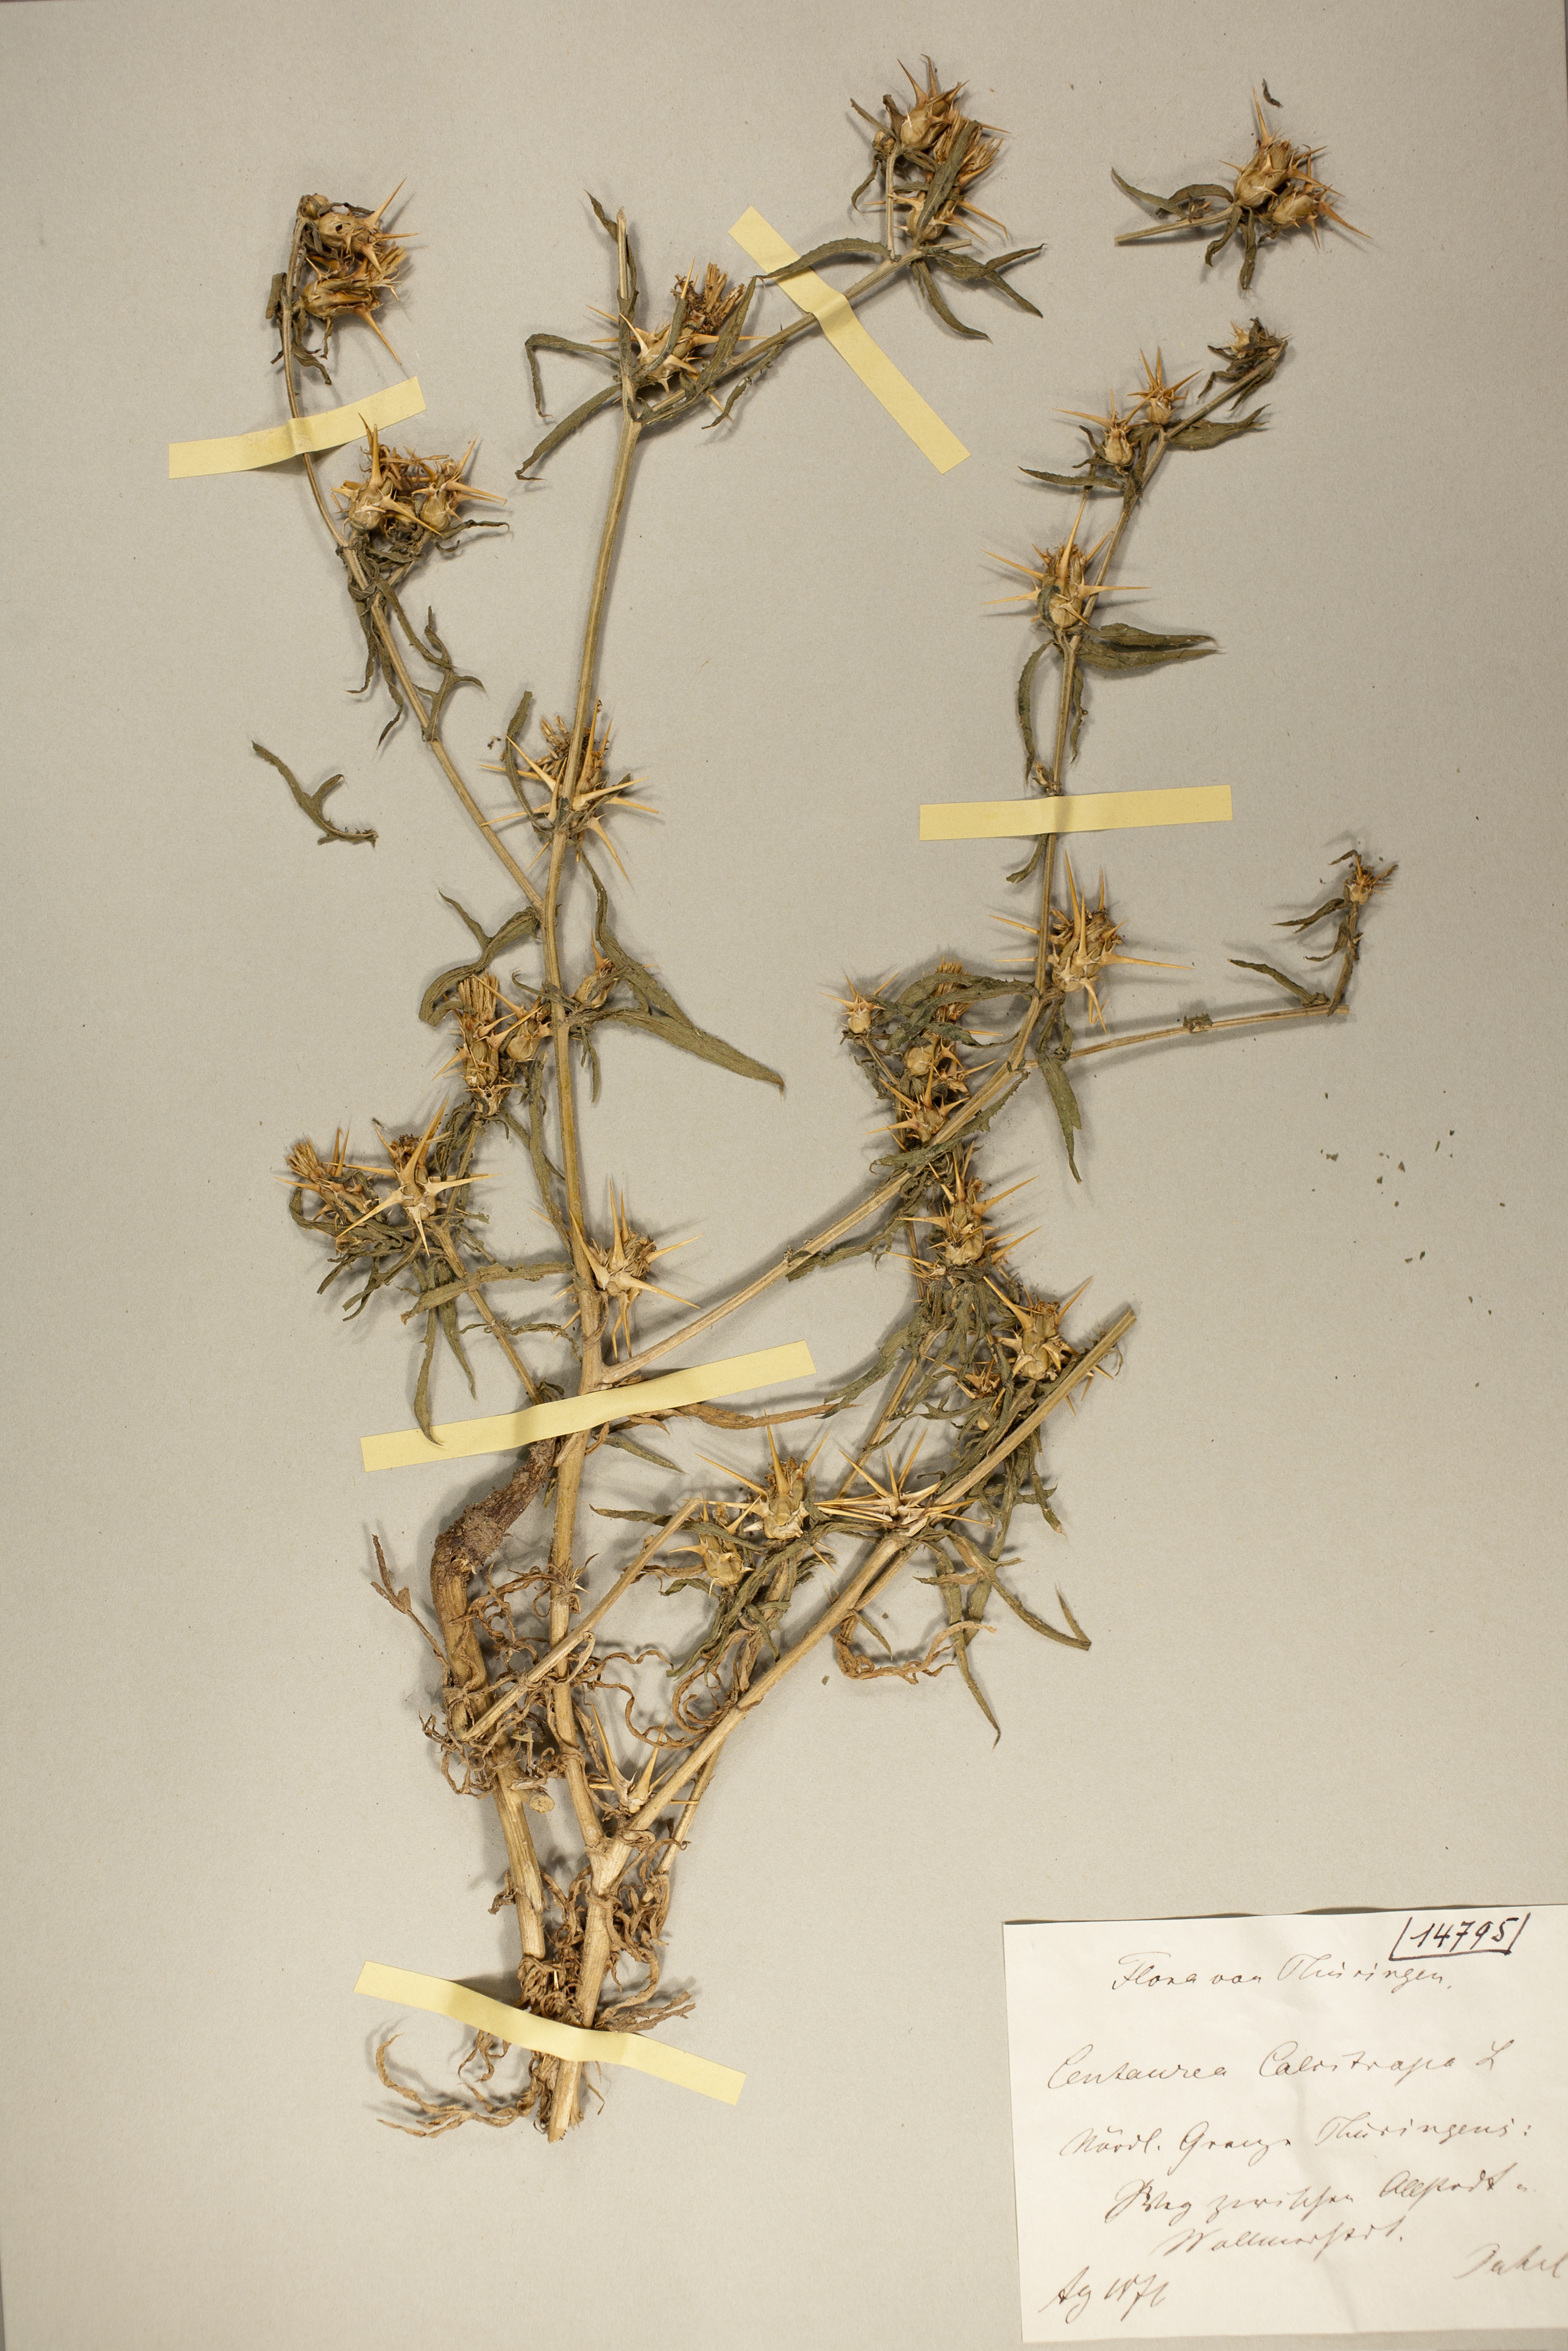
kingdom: Plantae
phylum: Tracheophyta
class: Magnoliopsida
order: Asterales
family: Asteraceae
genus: Centaurea
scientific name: Centaurea calcitrapa
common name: Red star-thistle
